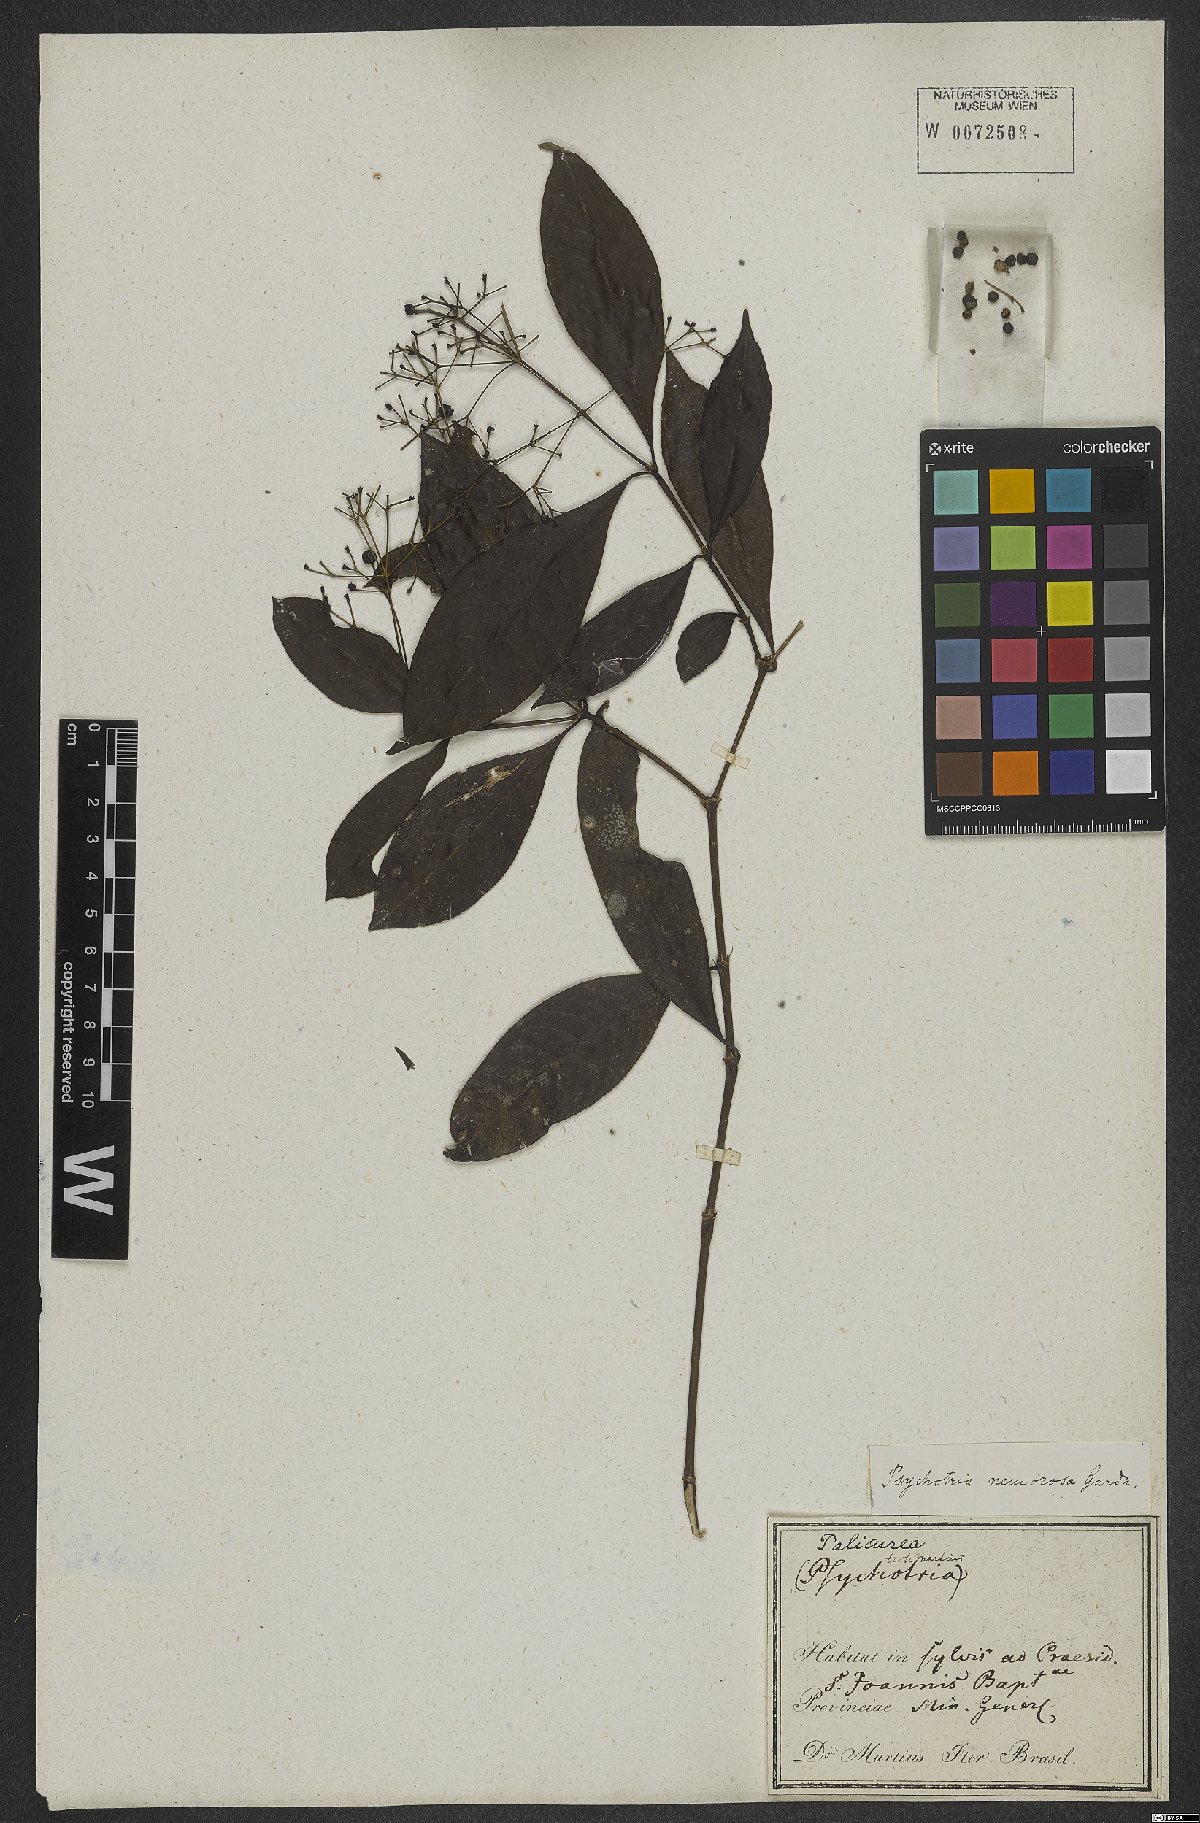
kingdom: Plantae
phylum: Tracheophyta
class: Magnoliopsida
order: Gentianales
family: Rubiaceae
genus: Psychotria
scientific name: Psychotria nemorosa
